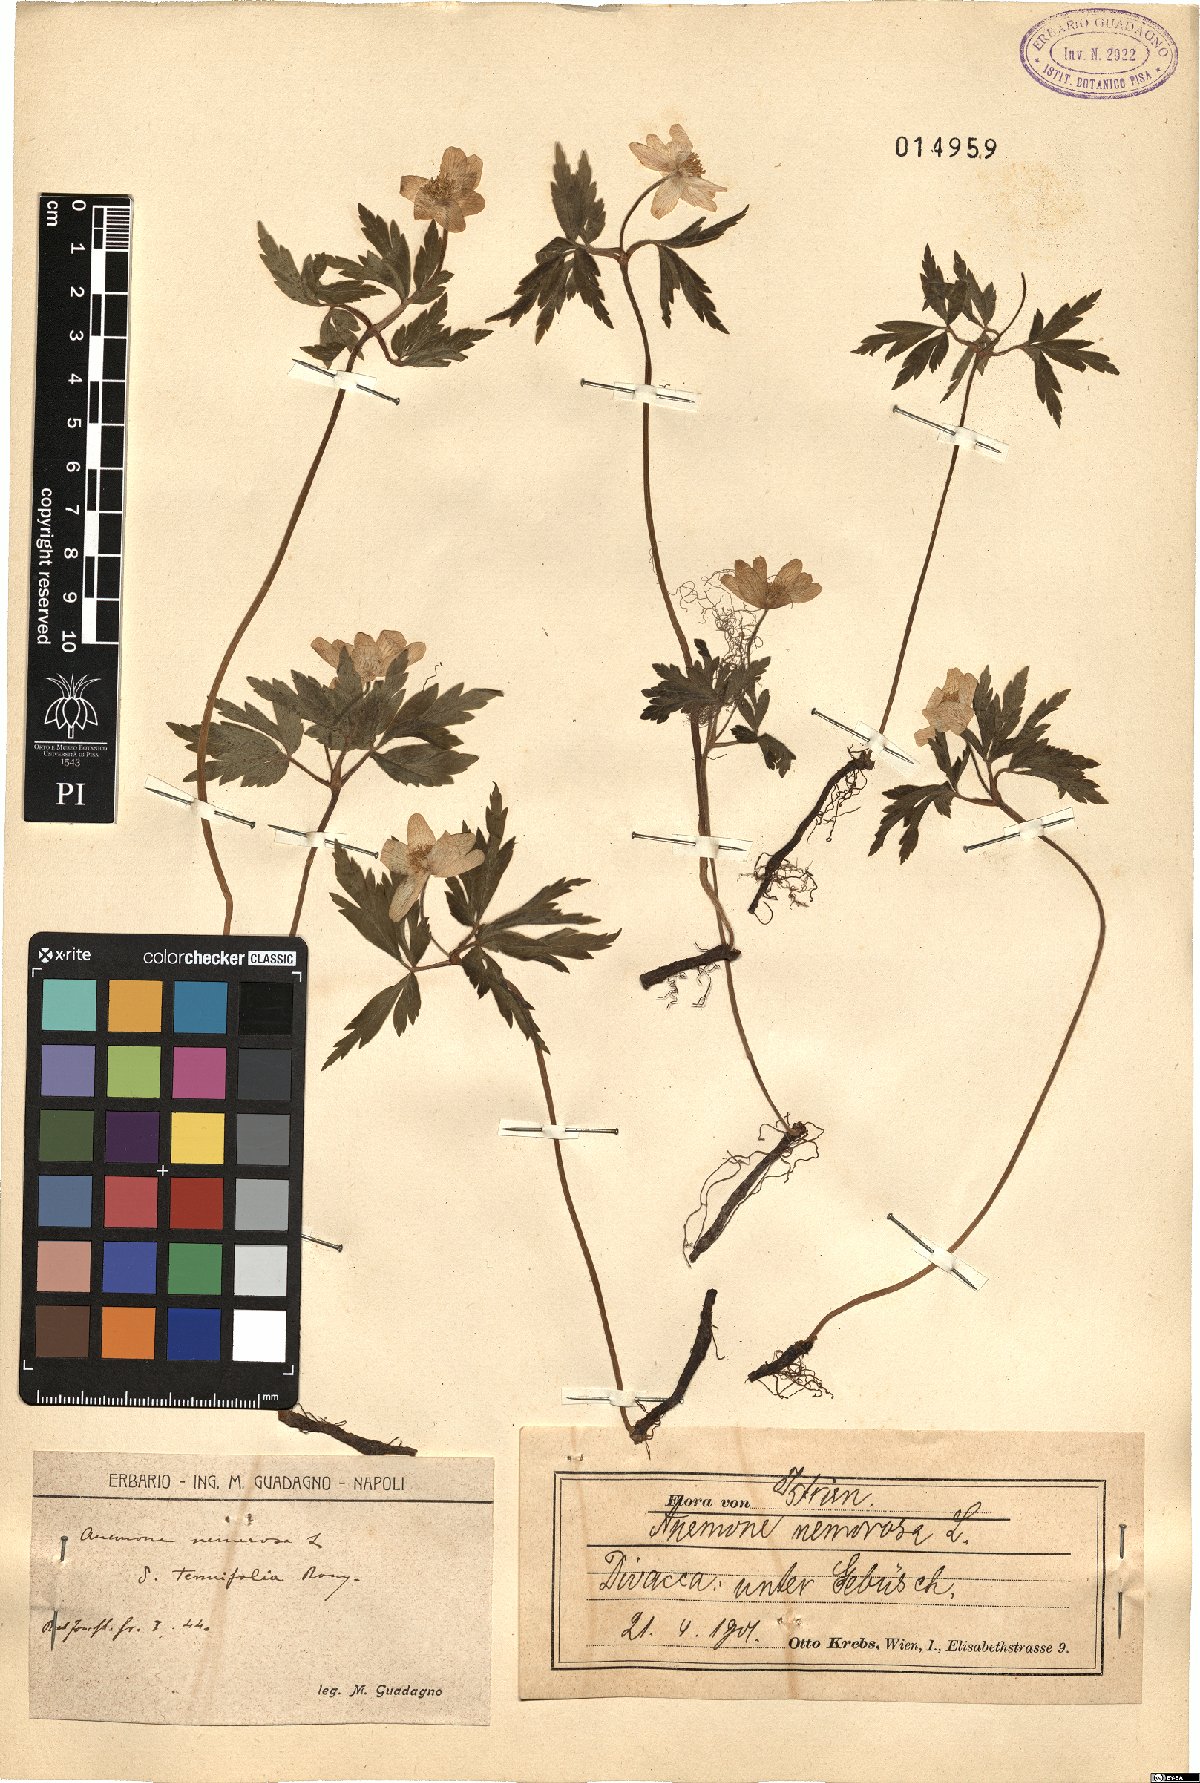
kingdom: Plantae
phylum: Tracheophyta
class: Magnoliopsida
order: Ranunculales
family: Ranunculaceae
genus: Anemone
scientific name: Anemone nemorosa
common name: Wood anemone
